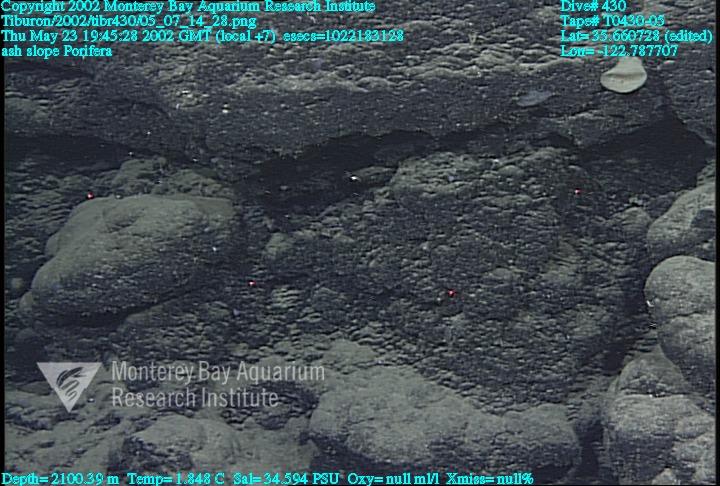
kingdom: Animalia
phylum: Porifera
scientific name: Porifera
